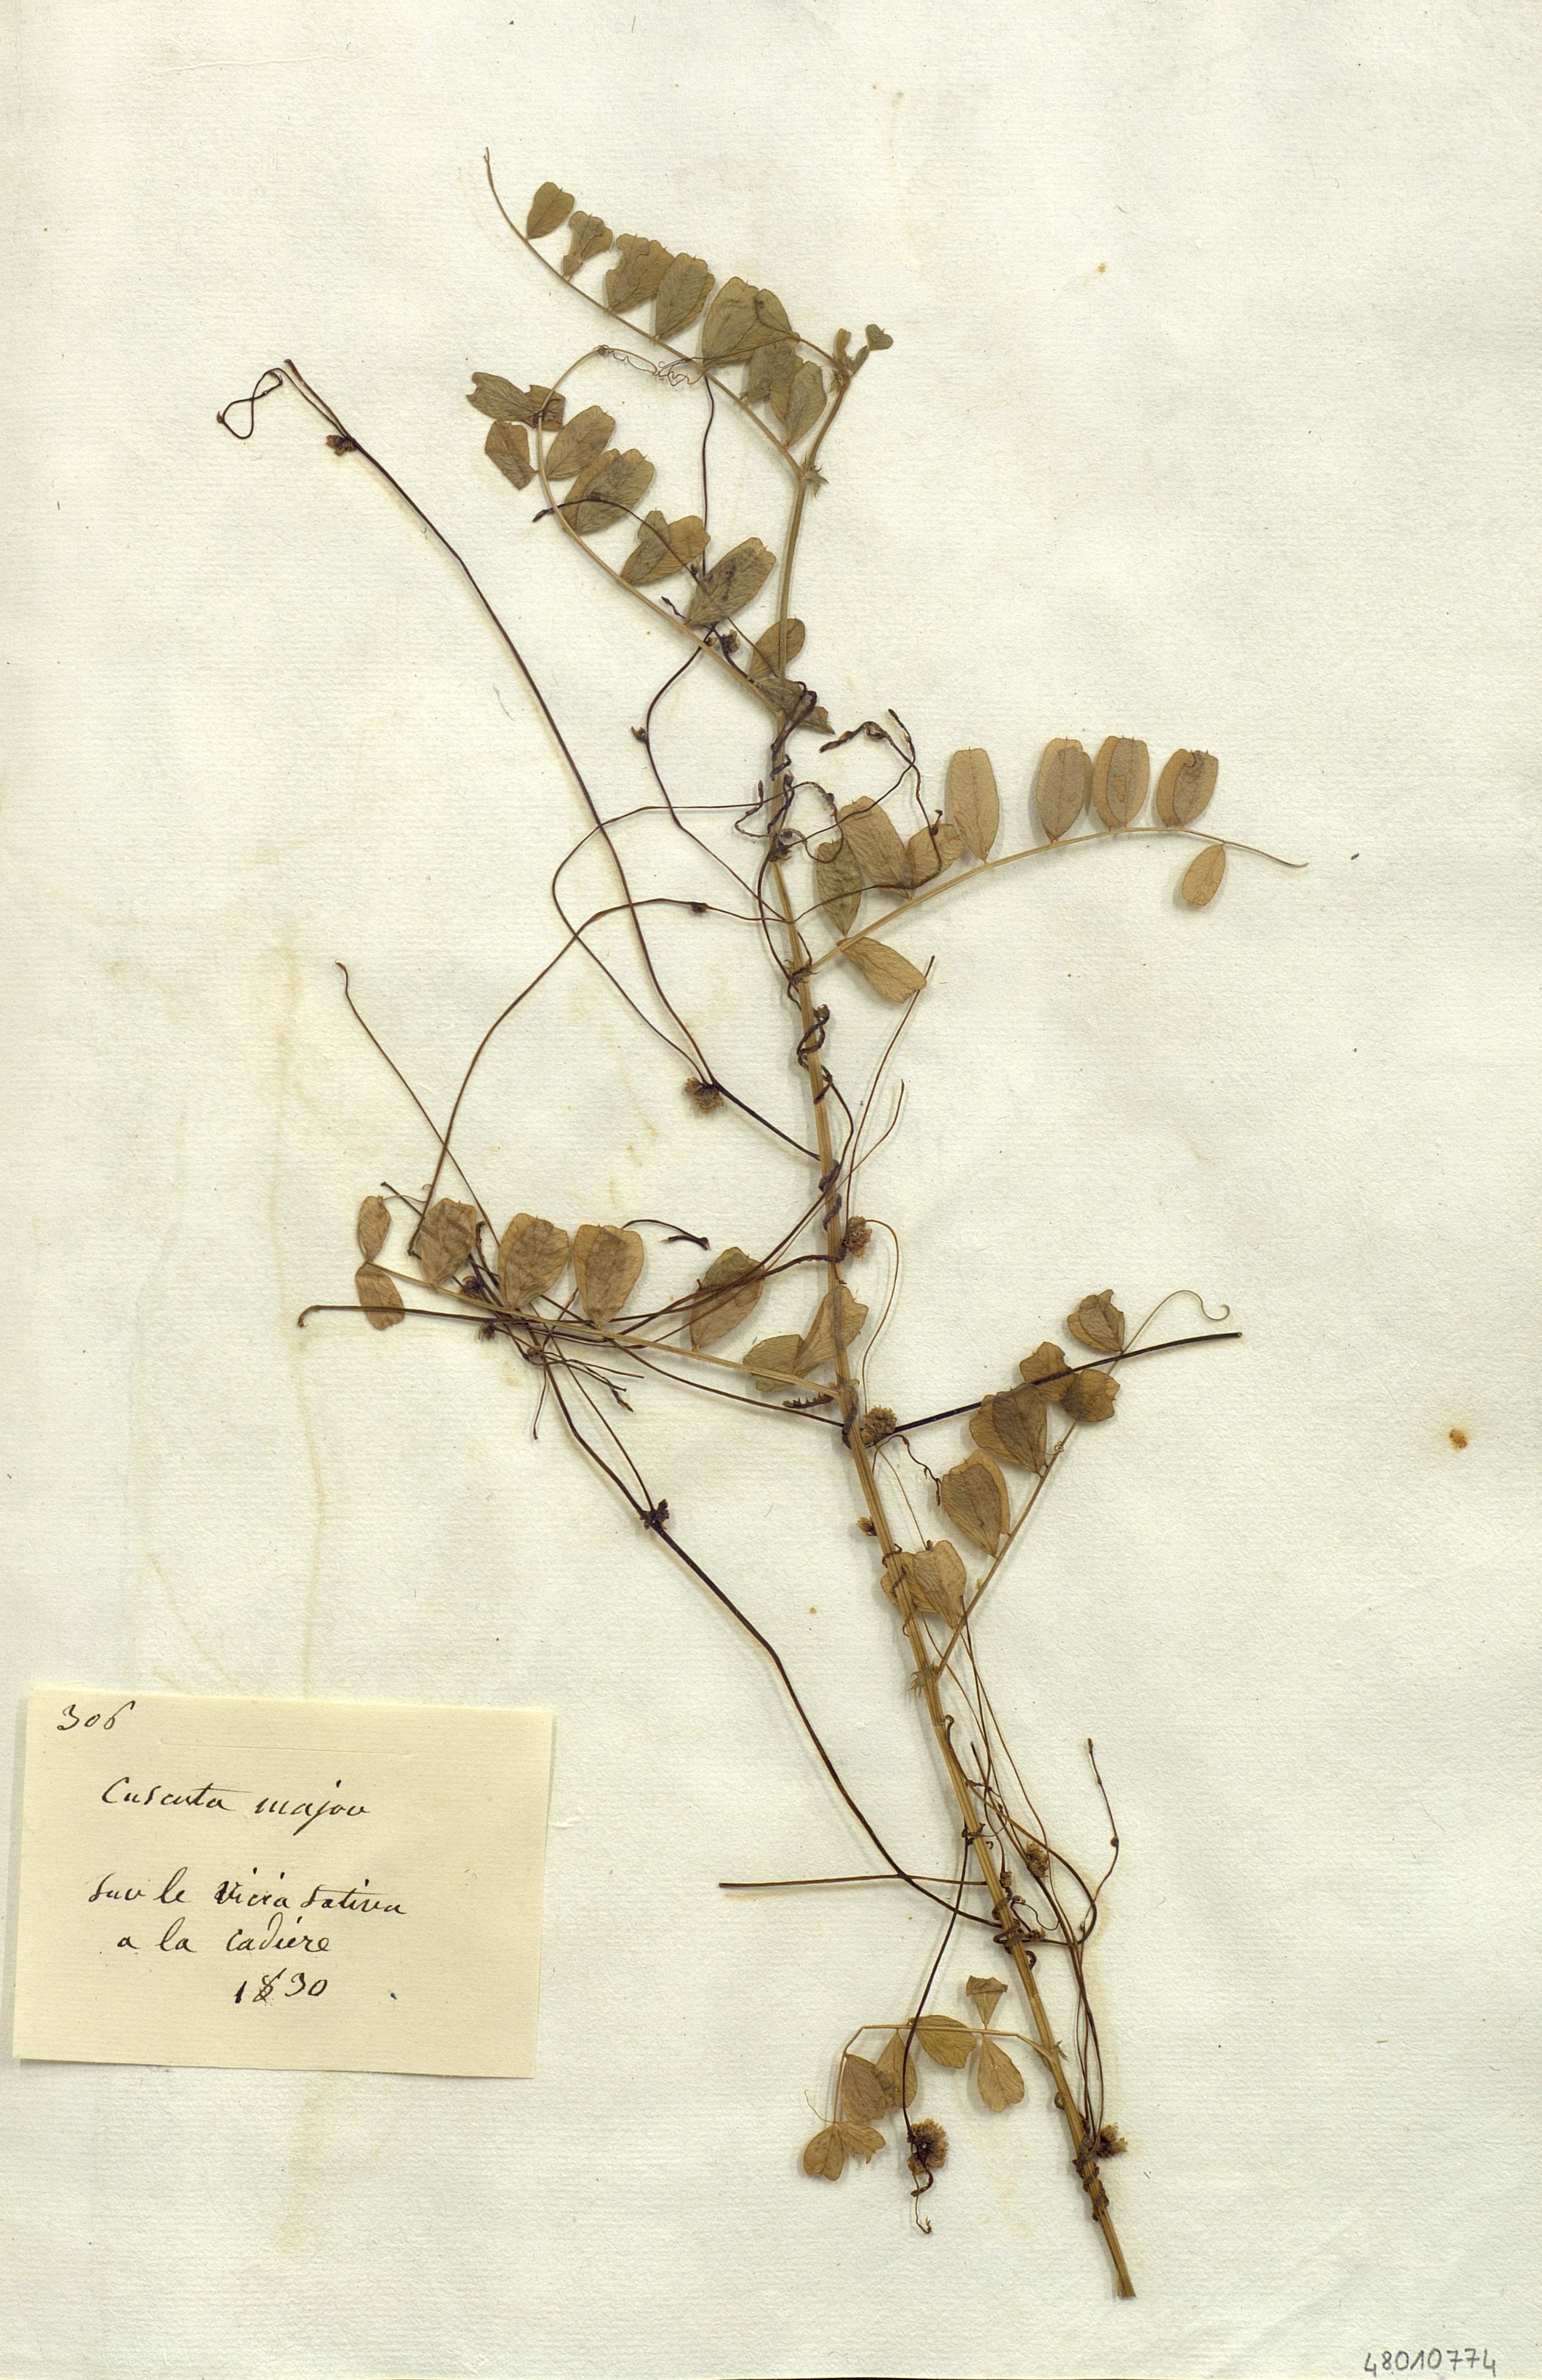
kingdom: Plantae
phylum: Tracheophyta
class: Magnoliopsida
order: Solanales
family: Convolvulaceae
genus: Cuscuta
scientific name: Cuscuta
